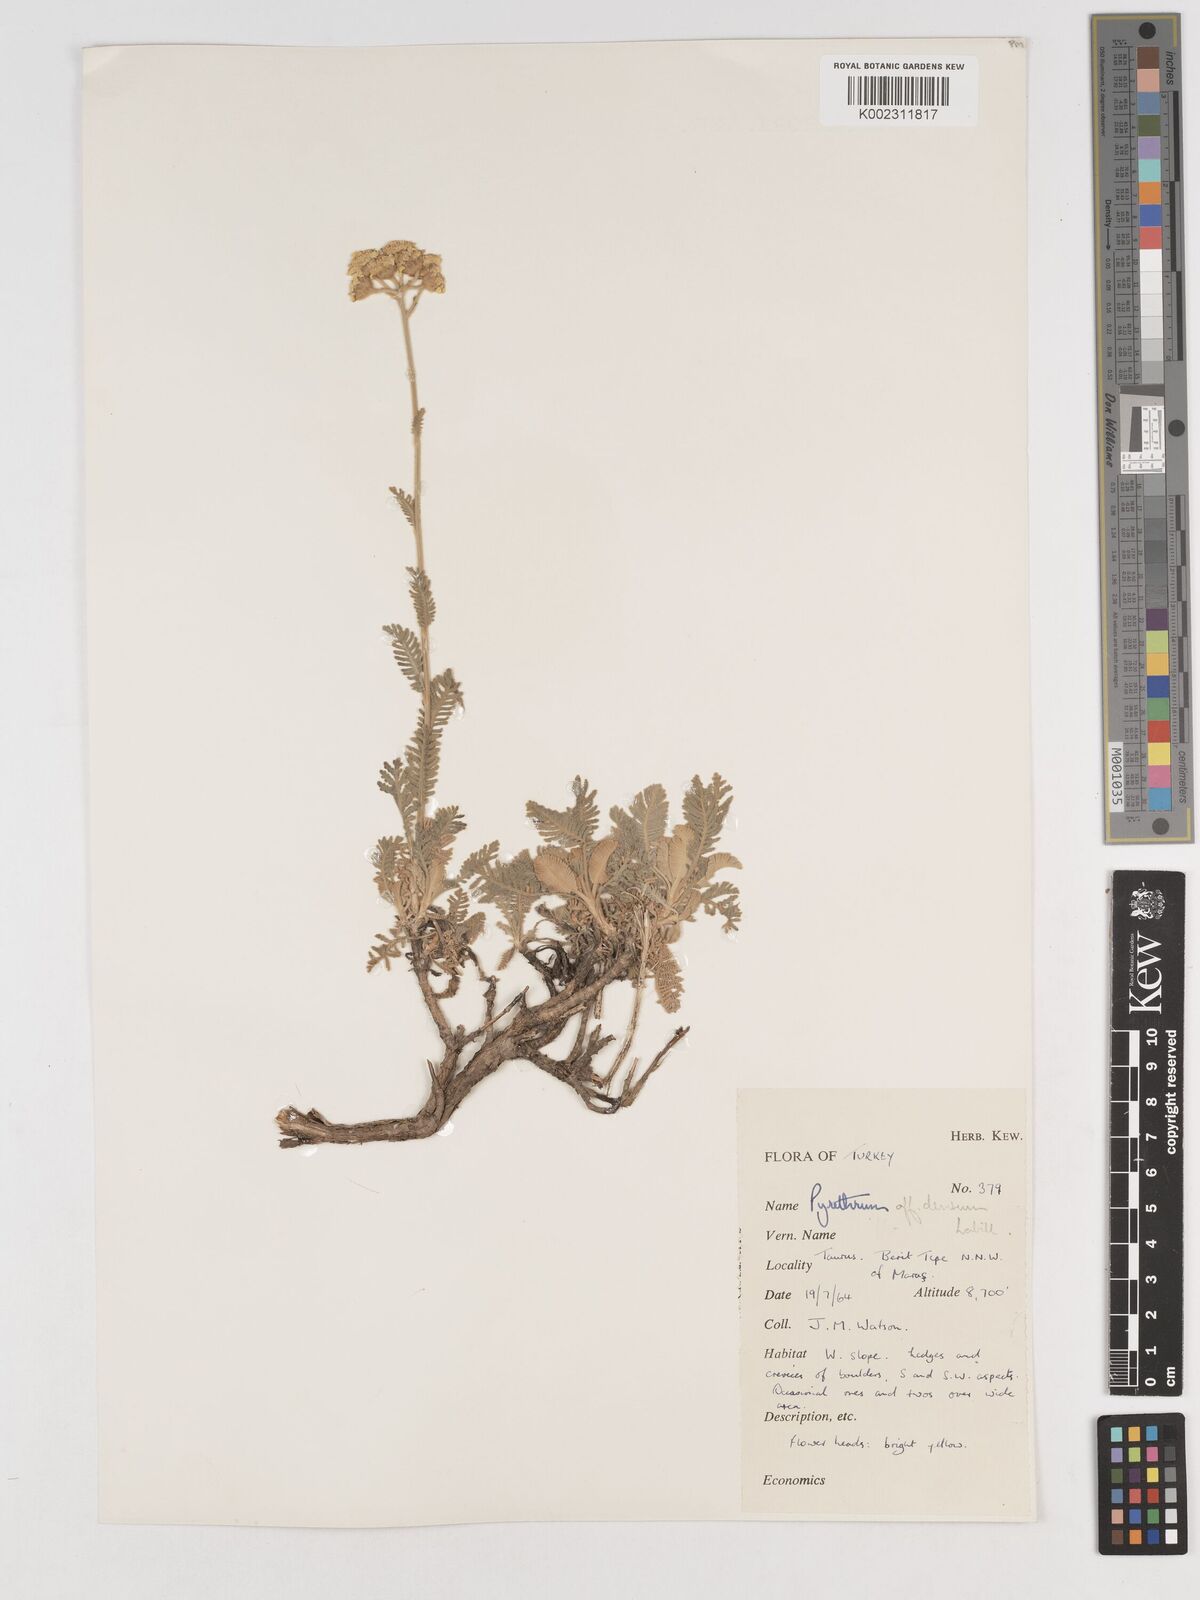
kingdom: Plantae
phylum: Tracheophyta
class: Magnoliopsida
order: Asterales
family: Asteraceae
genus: Tanacetum
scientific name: Tanacetum densum
